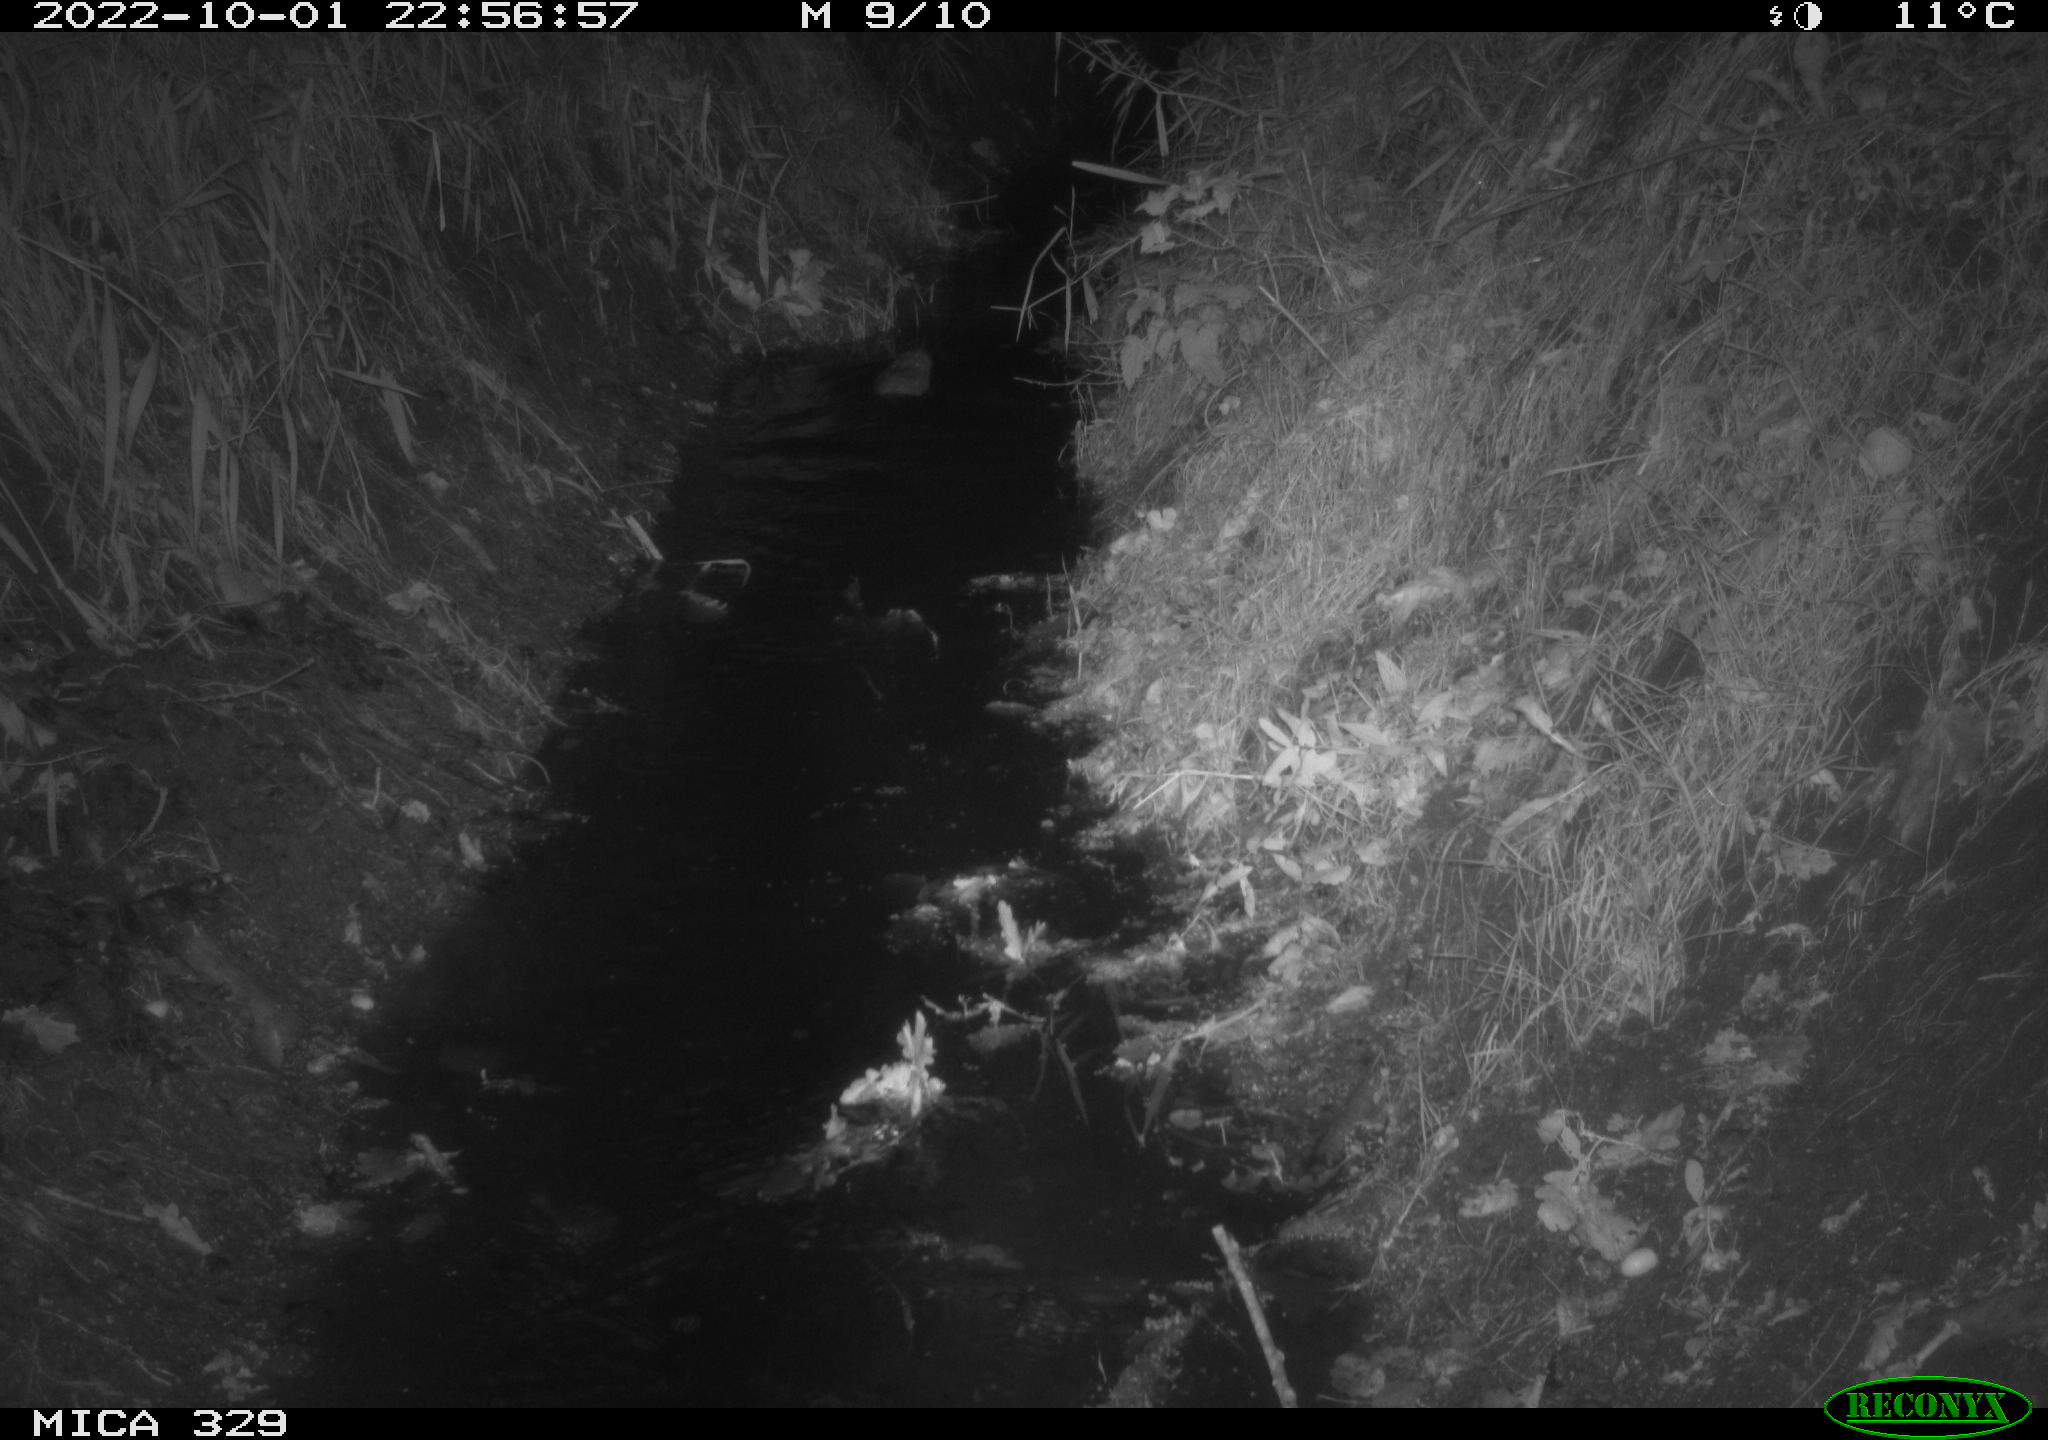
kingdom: Animalia
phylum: Chordata
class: Mammalia
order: Rodentia
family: Cricetidae
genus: Ondatra
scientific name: Ondatra zibethicus
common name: Muskrat
